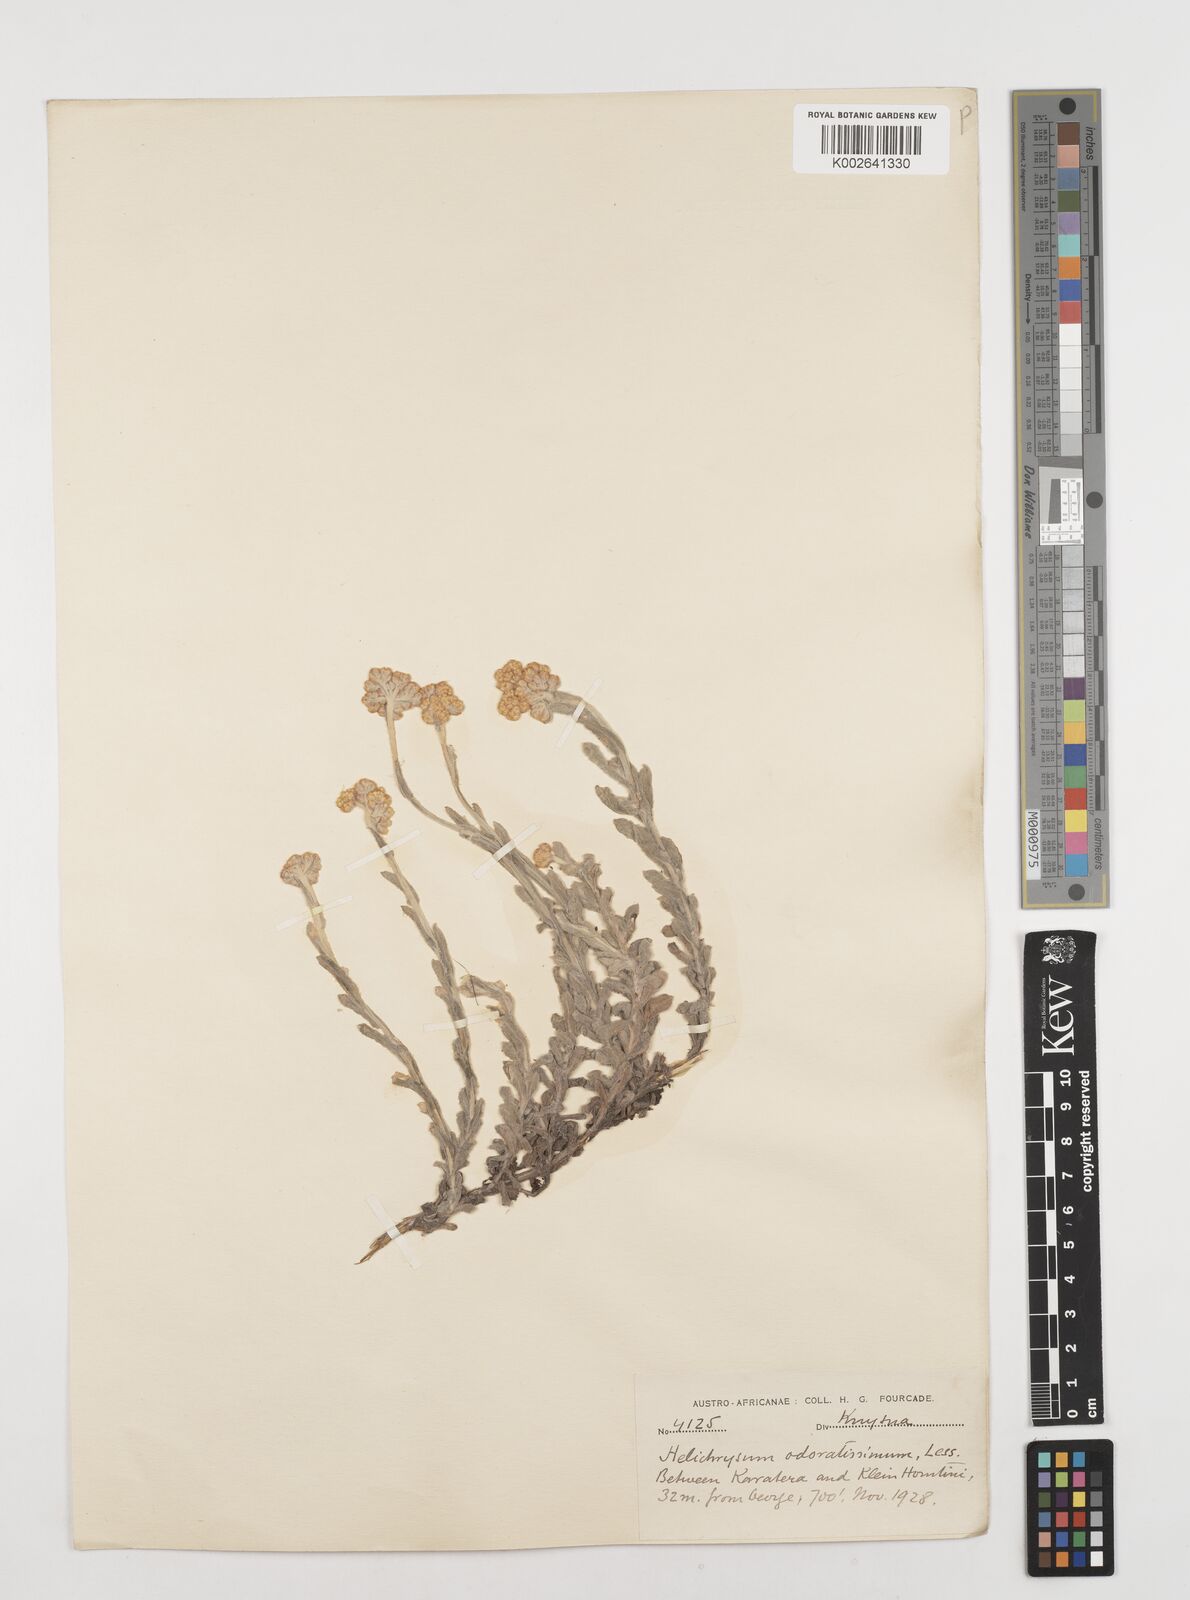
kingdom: Plantae
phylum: Tracheophyta
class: Magnoliopsida
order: Asterales
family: Asteraceae
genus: Helichrysum
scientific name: Helichrysum odoratissimum
